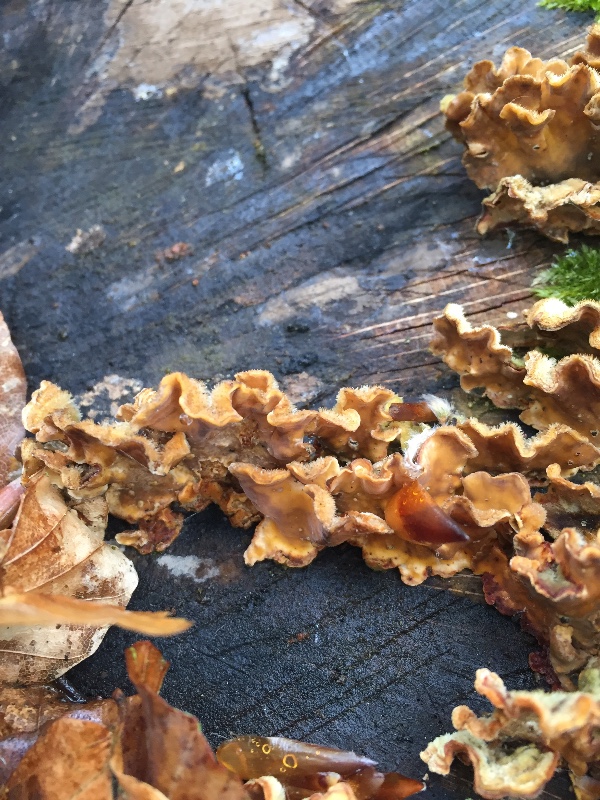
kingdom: Fungi
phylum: Basidiomycota
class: Agaricomycetes
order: Russulales
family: Stereaceae
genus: Stereum
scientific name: Stereum hirsutum
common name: håret lædersvamp
